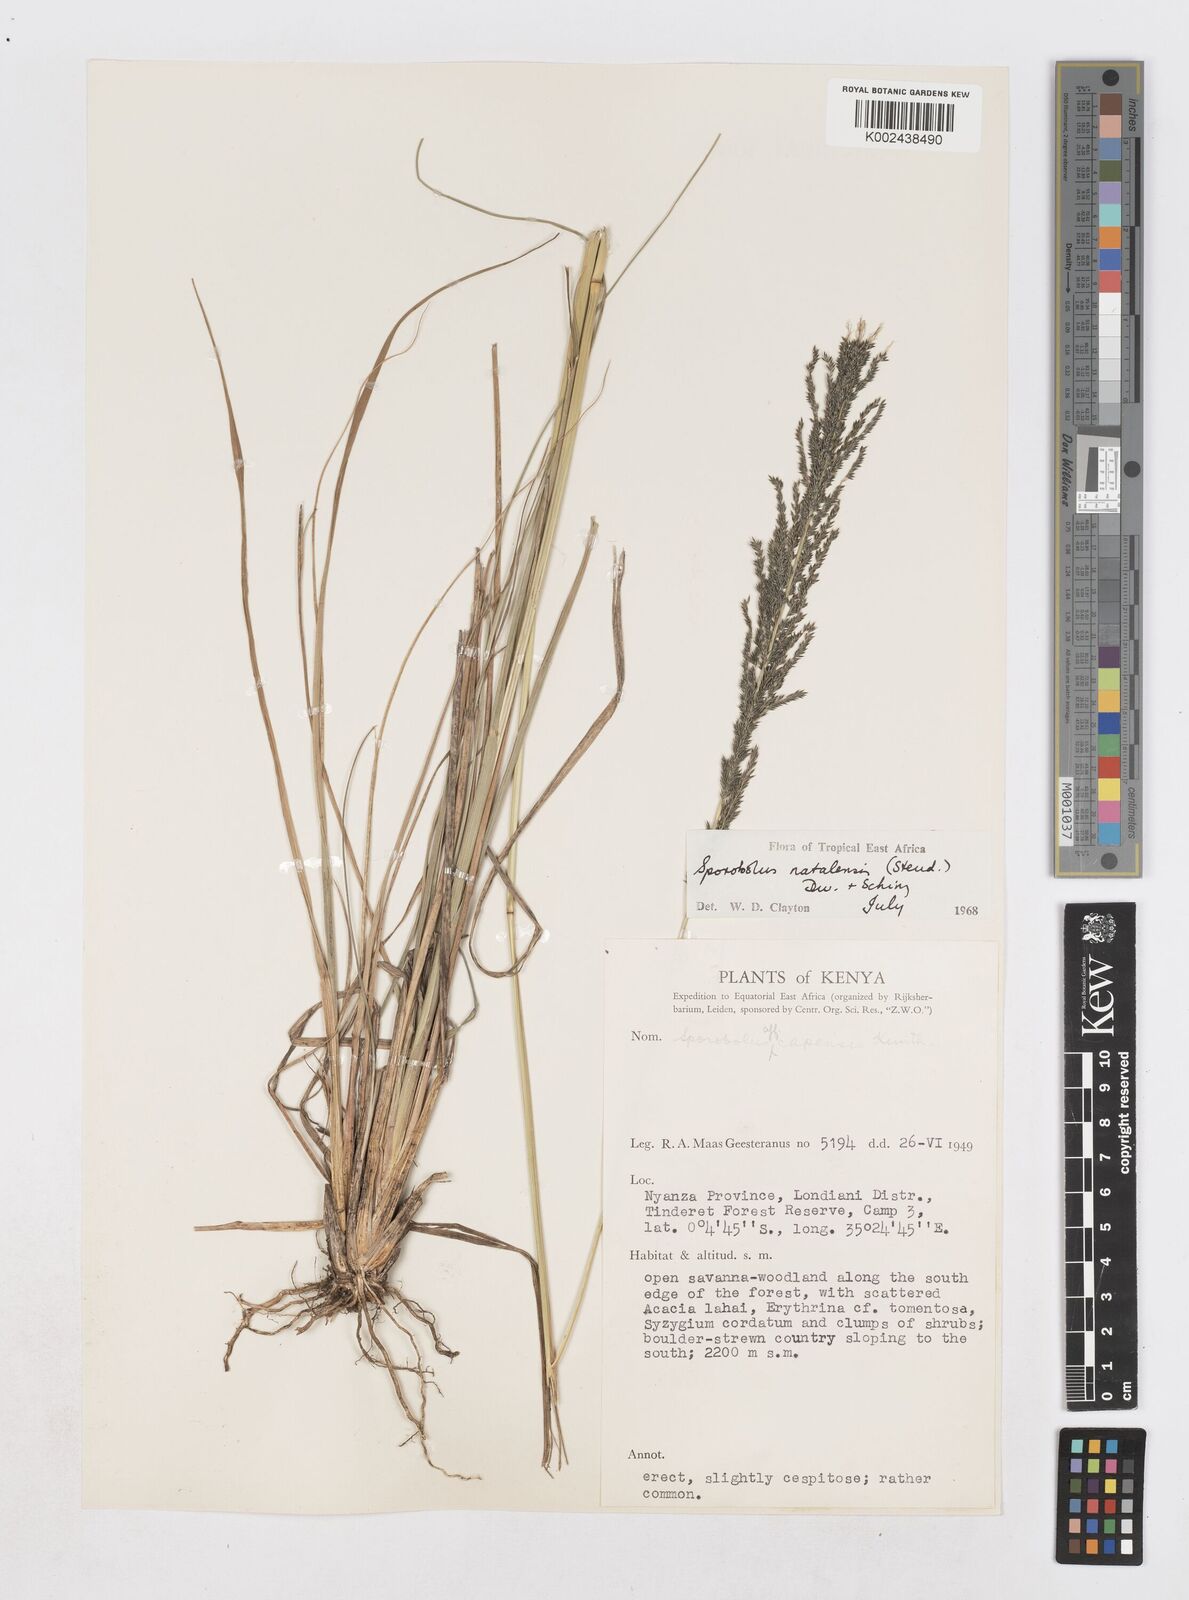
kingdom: Plantae
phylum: Tracheophyta
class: Liliopsida
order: Poales
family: Poaceae
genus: Sporobolus
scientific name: Sporobolus natalensis
